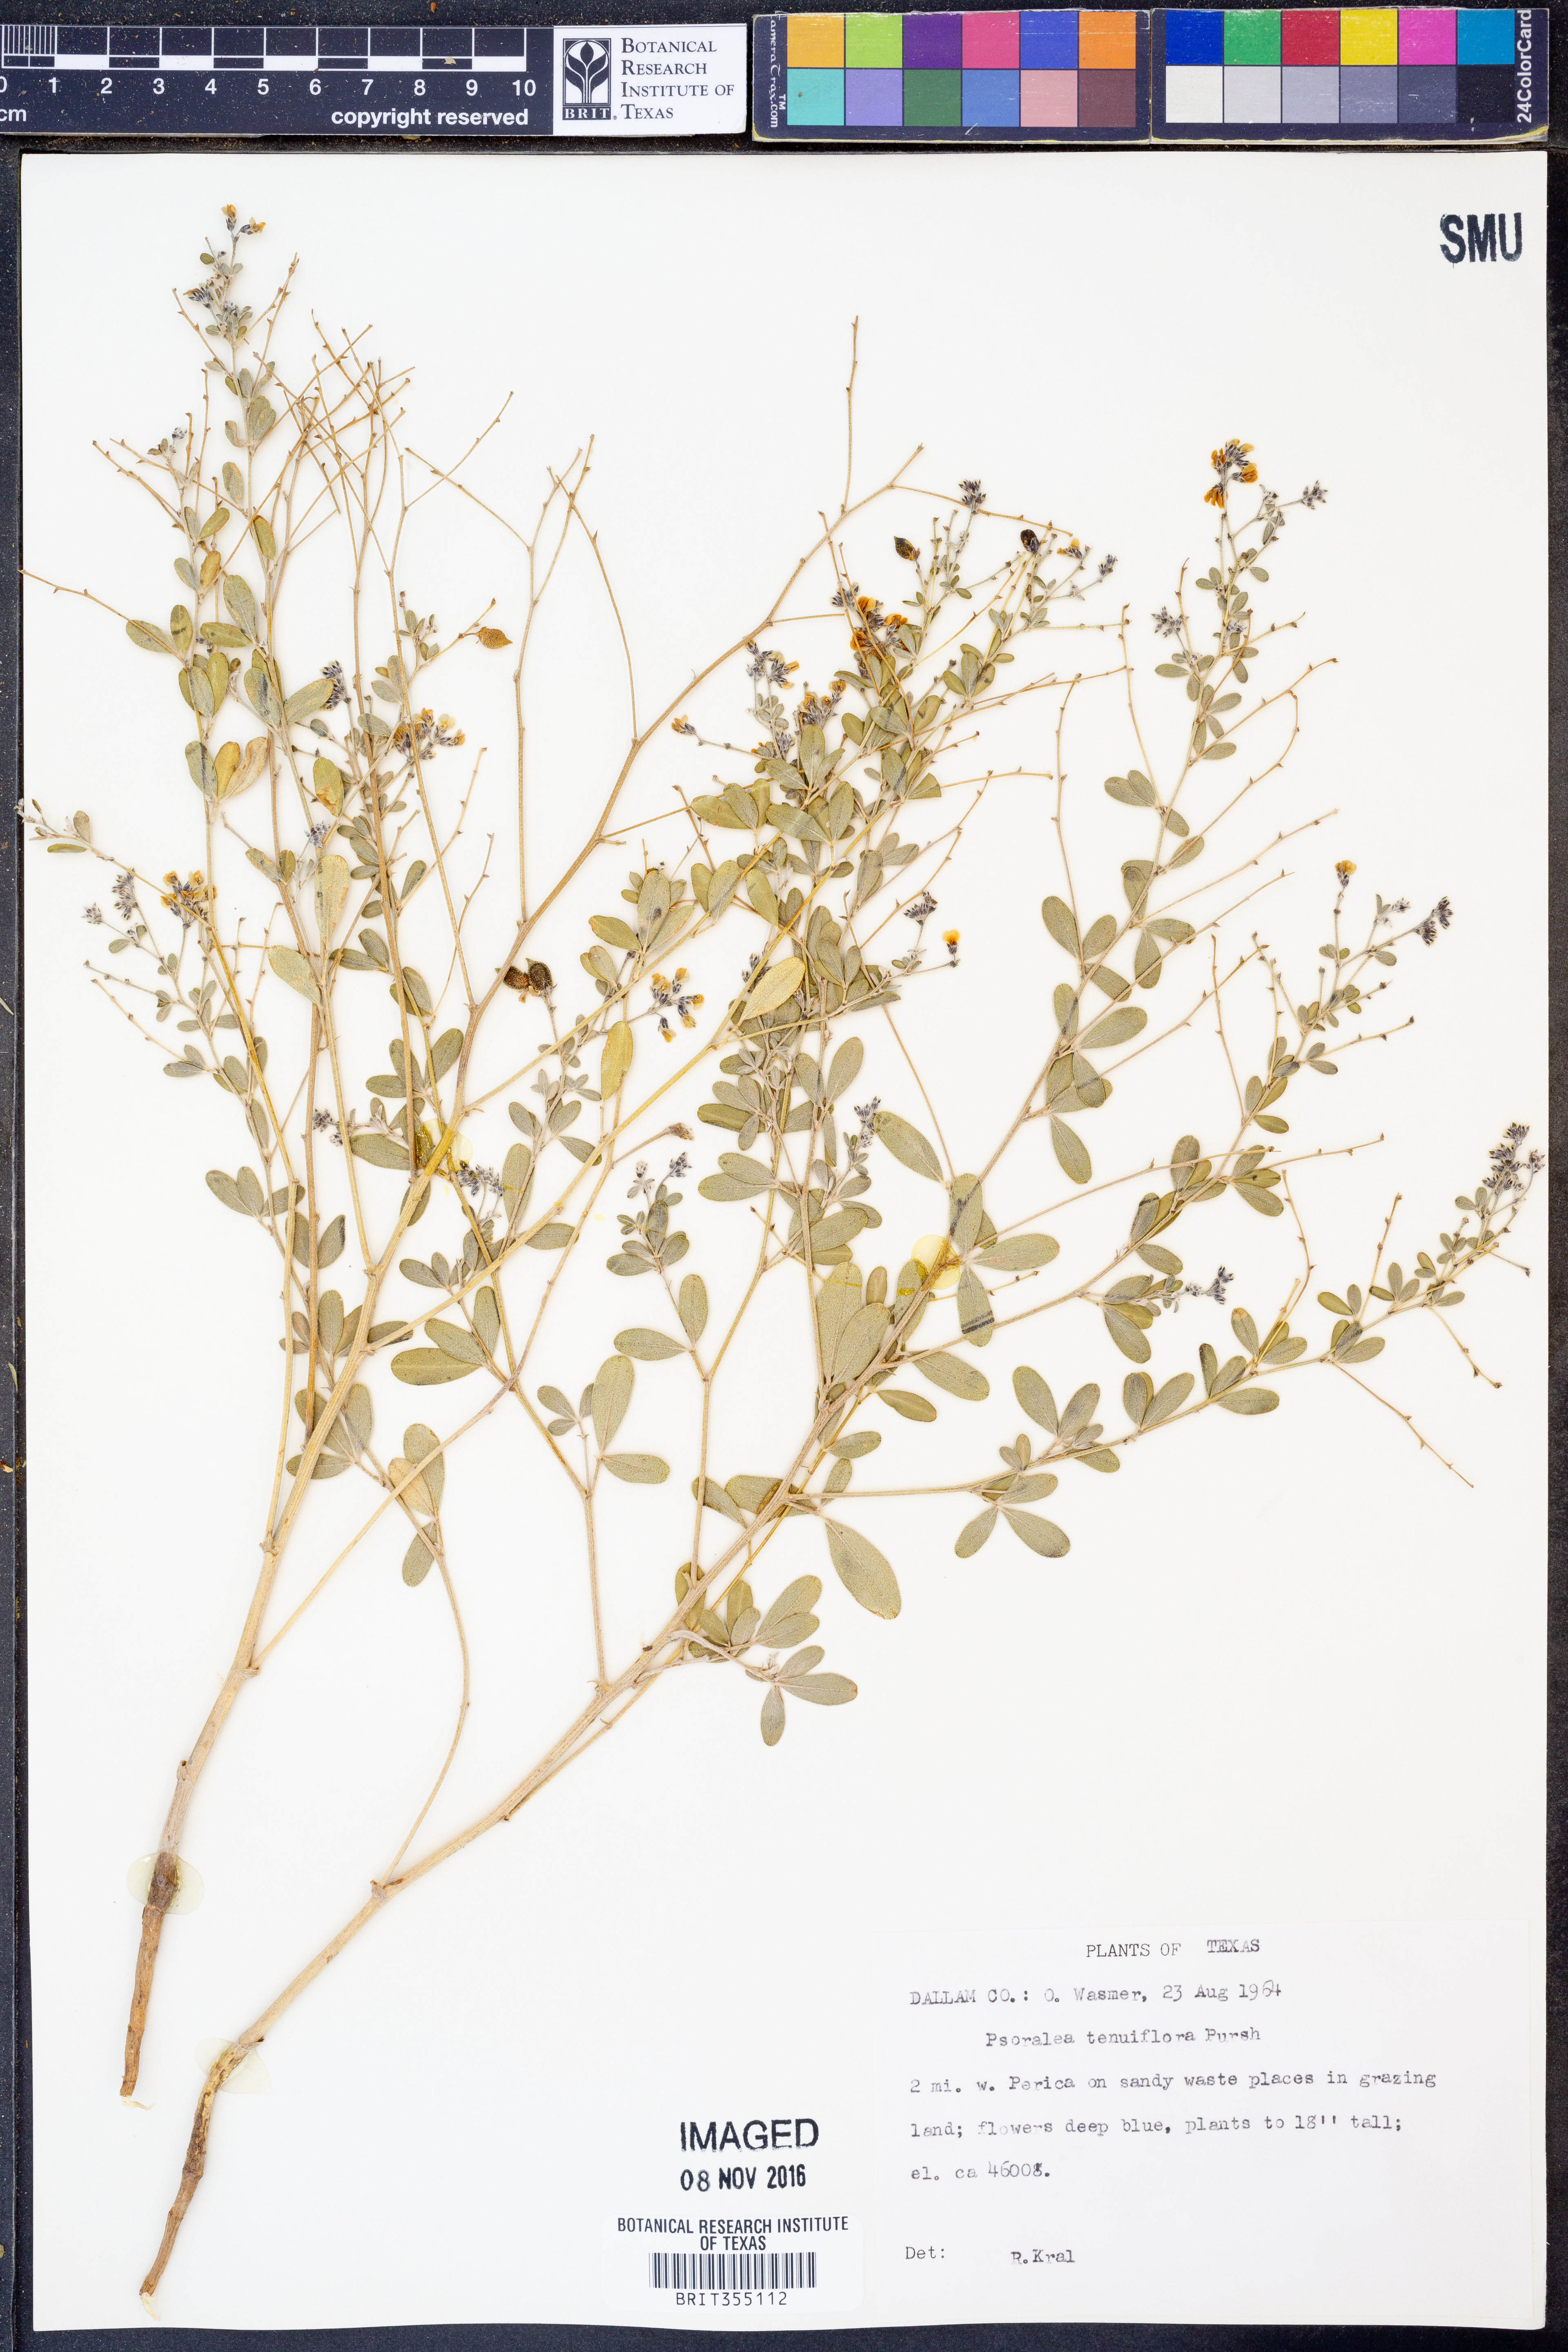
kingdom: Plantae
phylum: Tracheophyta
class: Magnoliopsida
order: Fabales
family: Fabaceae
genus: Pediomelum
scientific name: Pediomelum tenuiflorum
